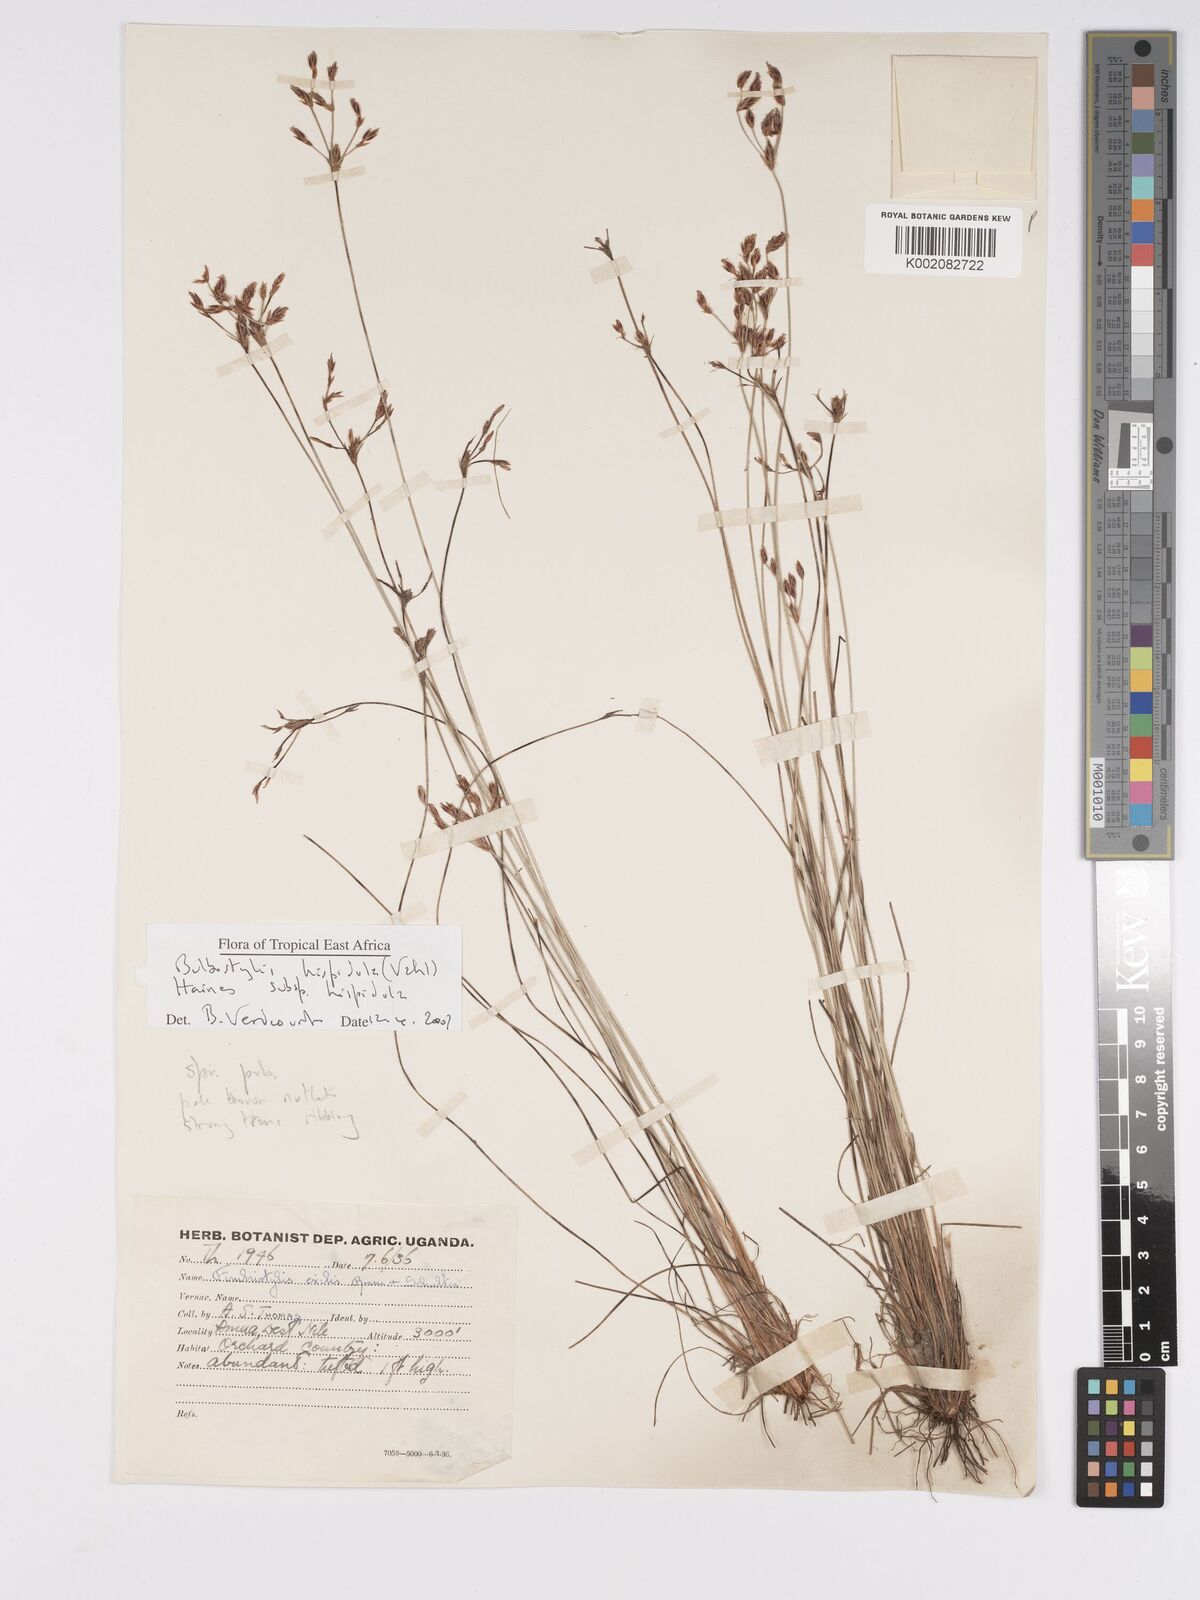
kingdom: Plantae
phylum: Tracheophyta
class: Liliopsida
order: Poales
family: Cyperaceae
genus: Bulbostylis
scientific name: Bulbostylis hispidula
